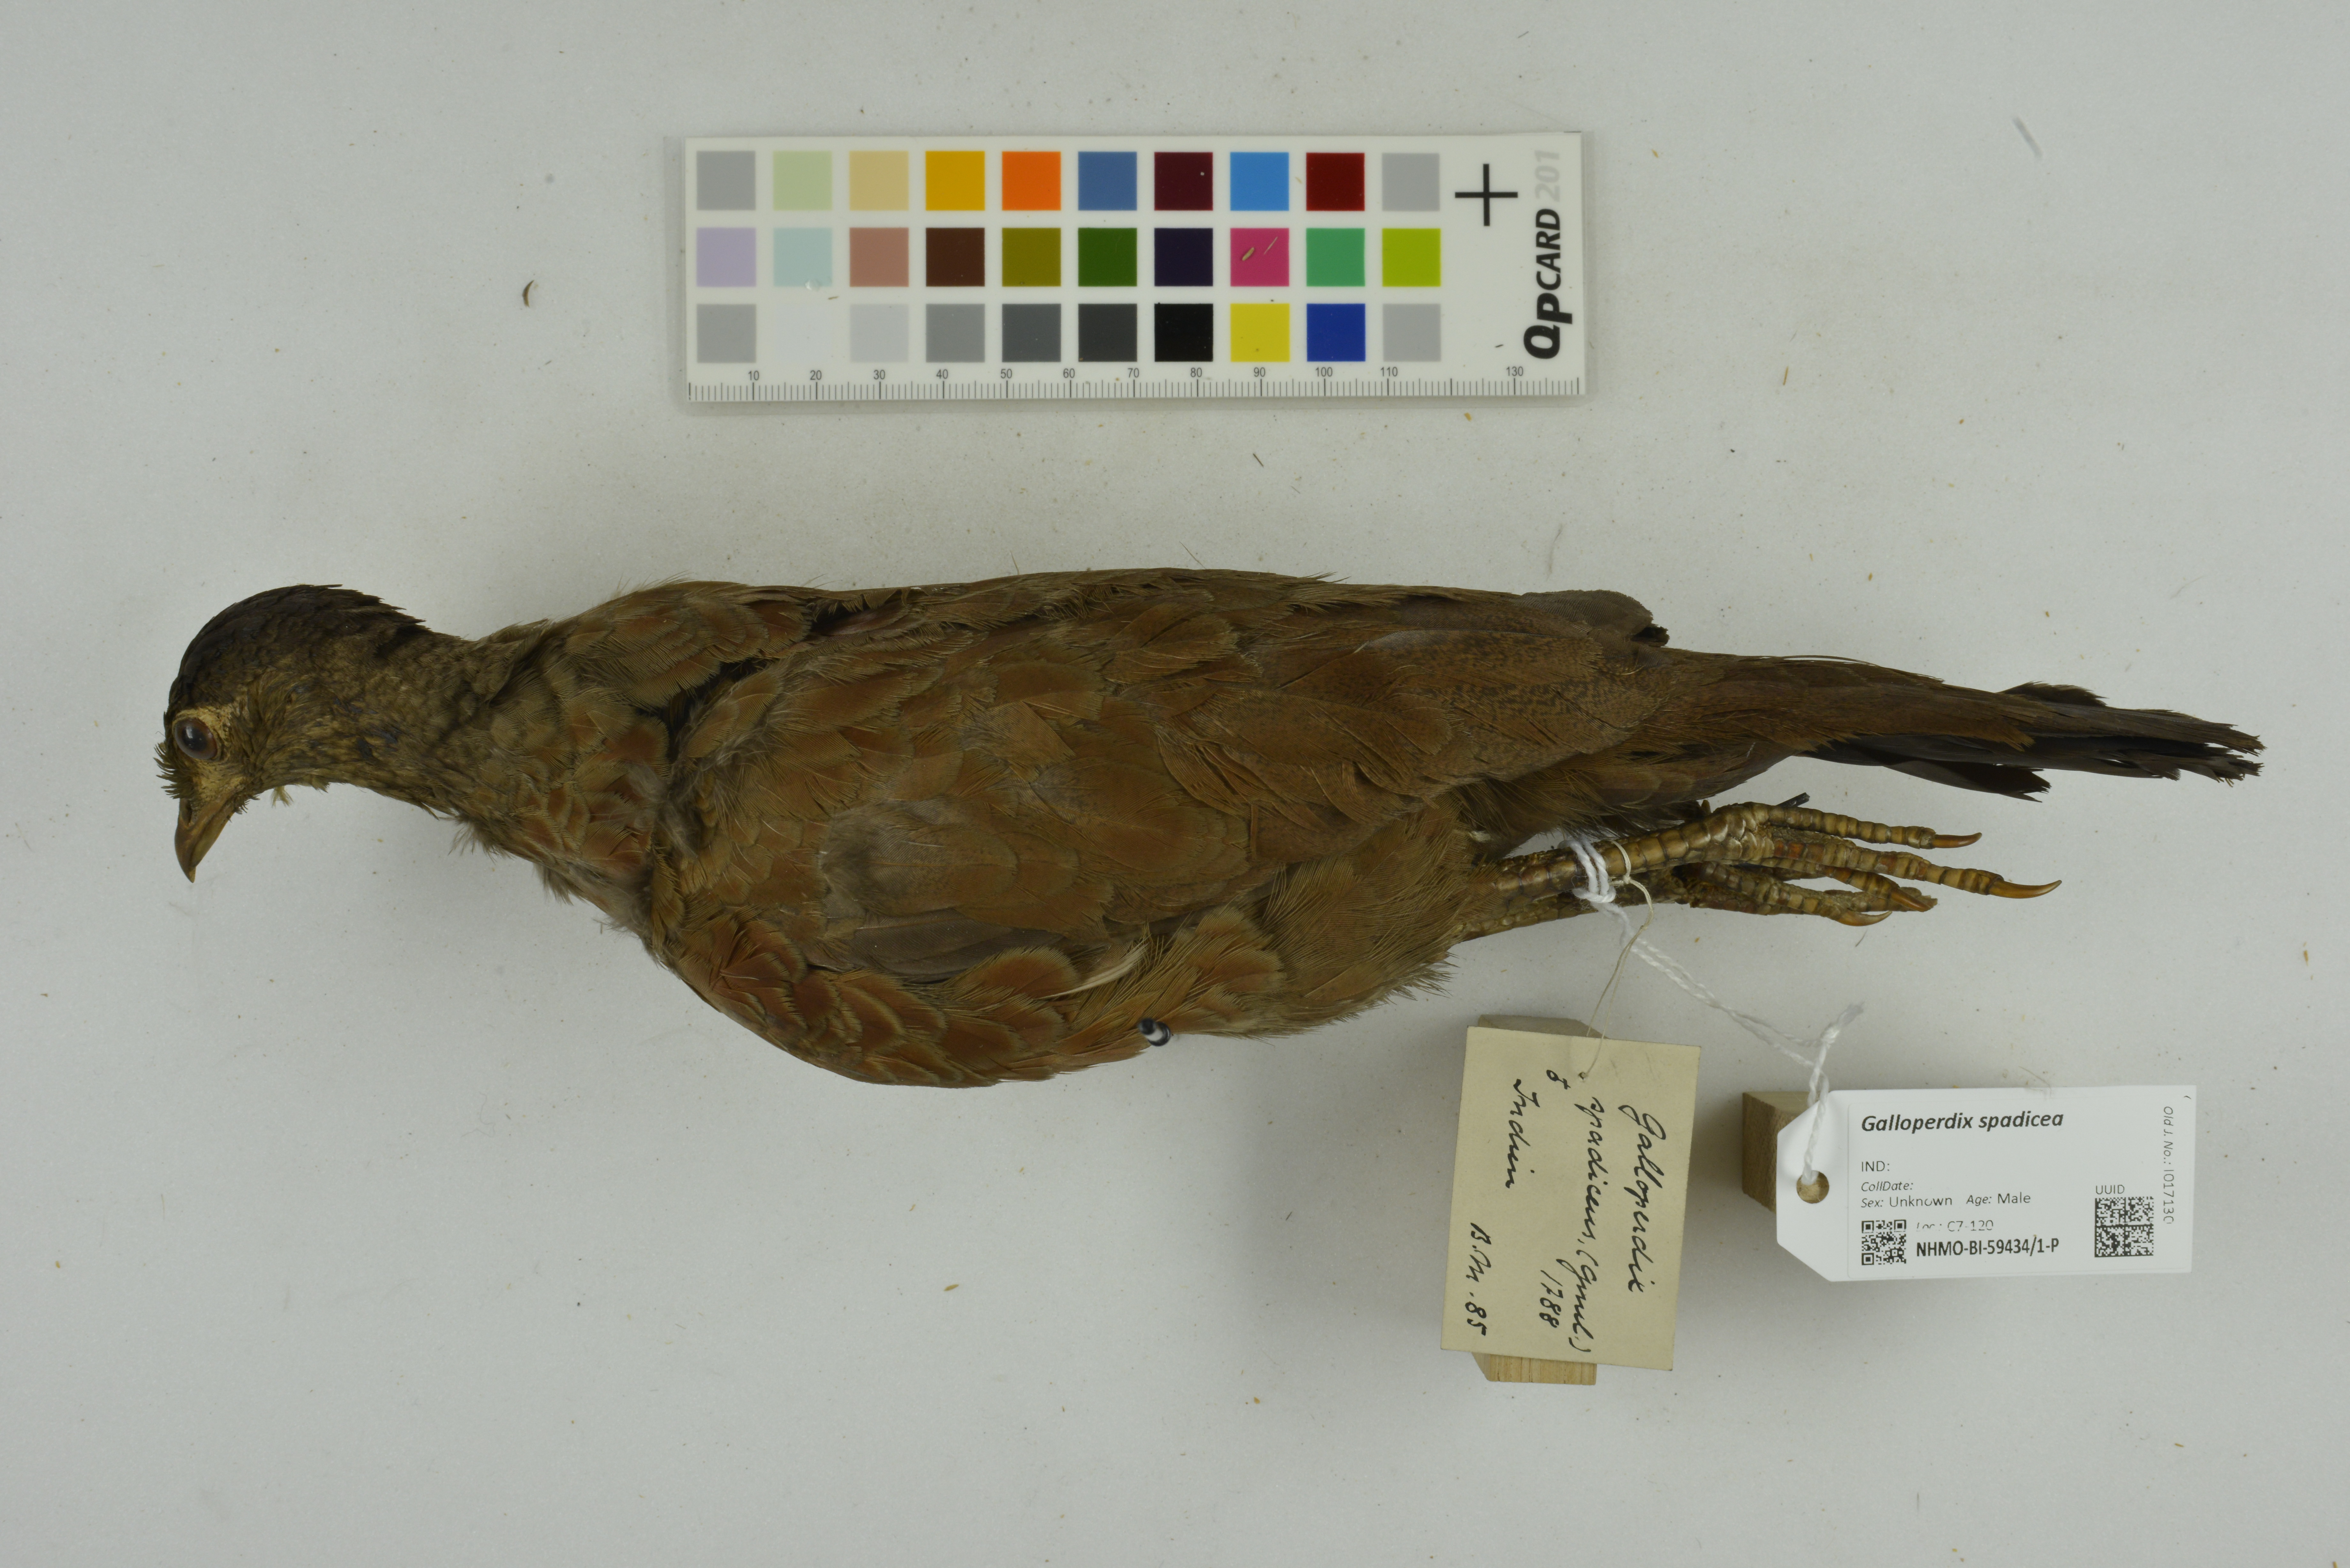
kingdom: Animalia
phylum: Chordata
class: Aves
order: Galliformes
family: Phasianidae
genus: Galloperdix
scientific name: Galloperdix spadicea
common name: Red spurfowl
